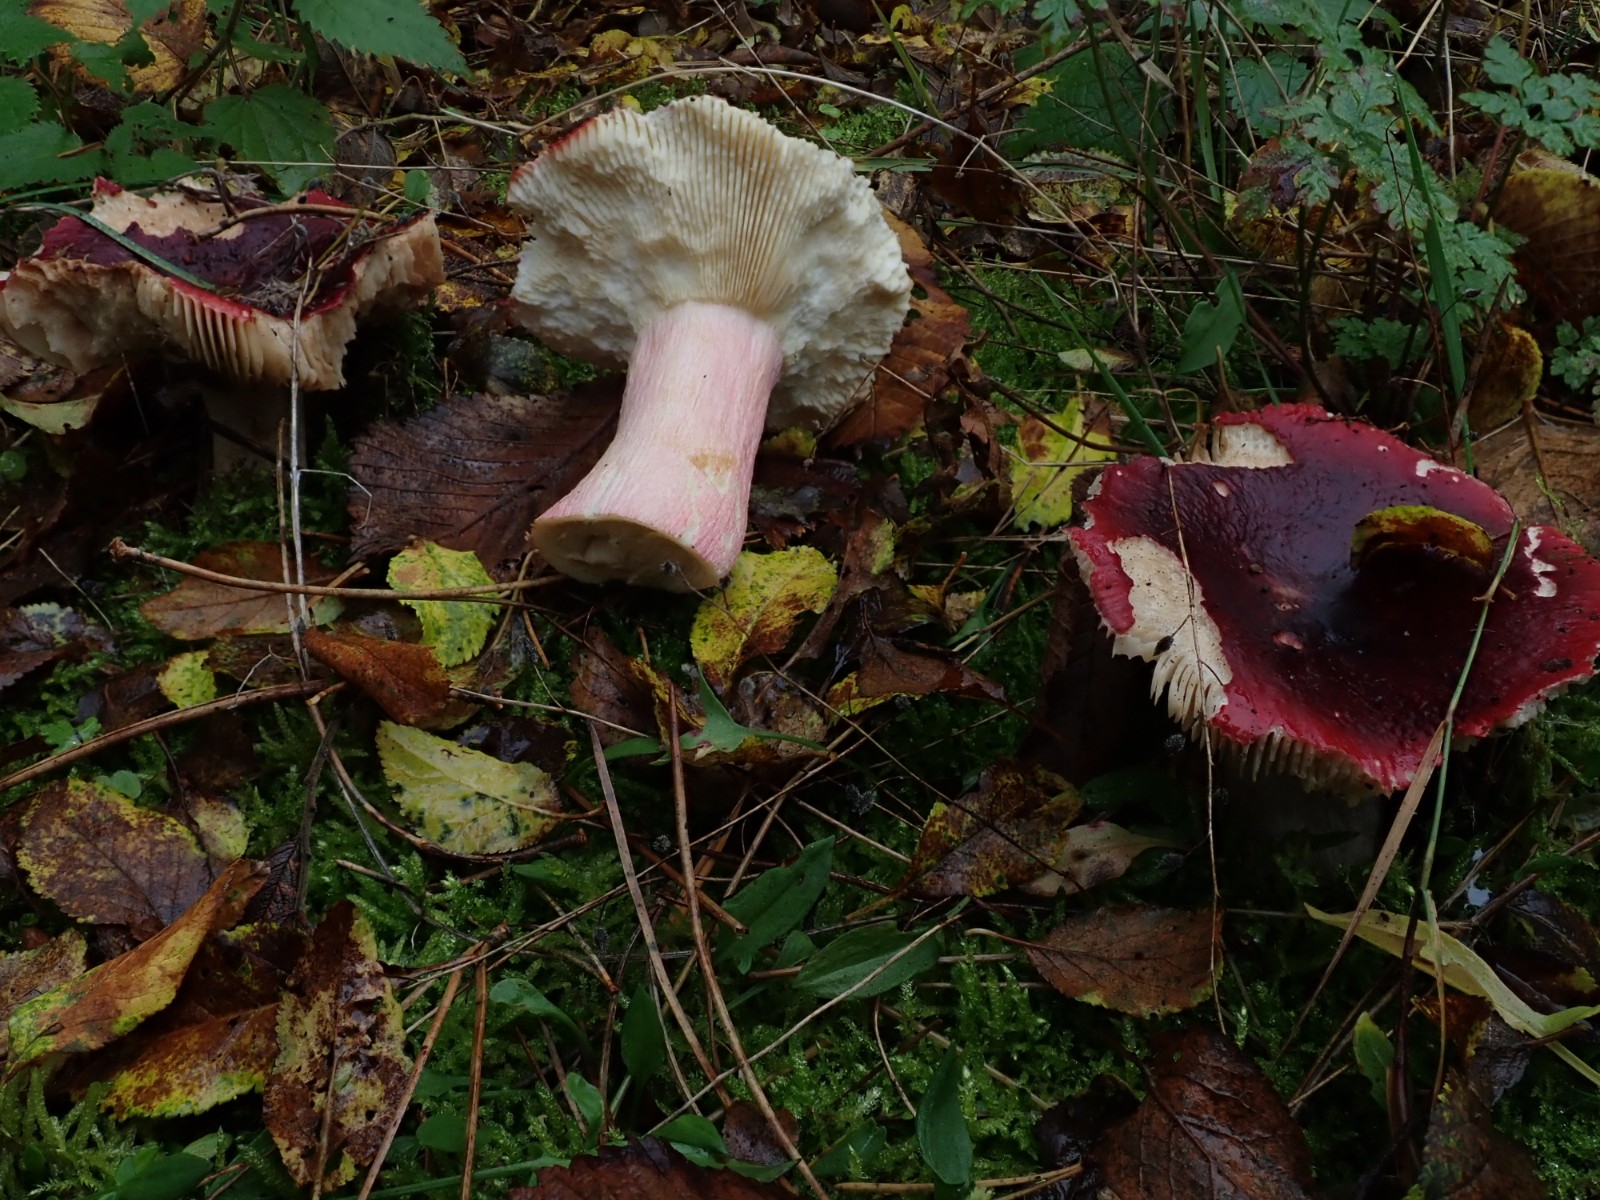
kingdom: Fungi
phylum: Basidiomycota
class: Agaricomycetes
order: Russulales
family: Russulaceae
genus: Russula
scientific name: Russula xerampelina
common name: hummer-skørhat
